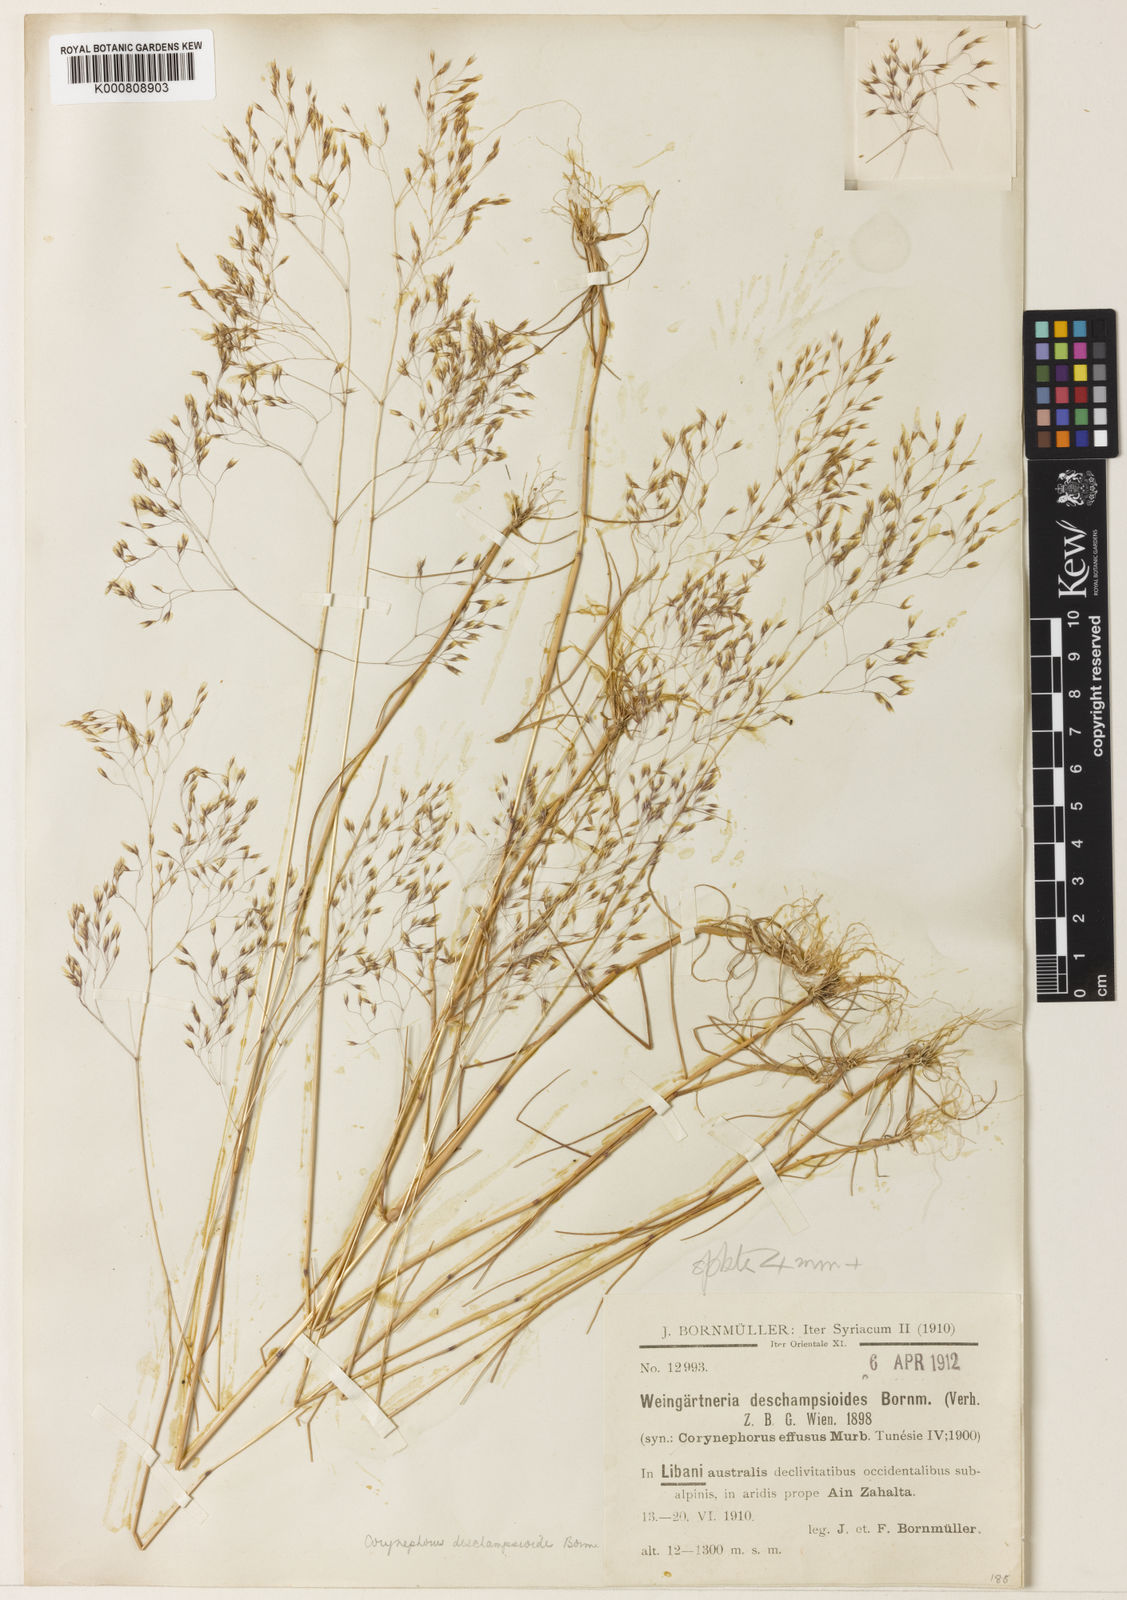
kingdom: Plantae
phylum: Tracheophyta
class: Liliopsida
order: Poales
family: Poaceae
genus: Corynephorus
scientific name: Corynephorus deschampsioides
